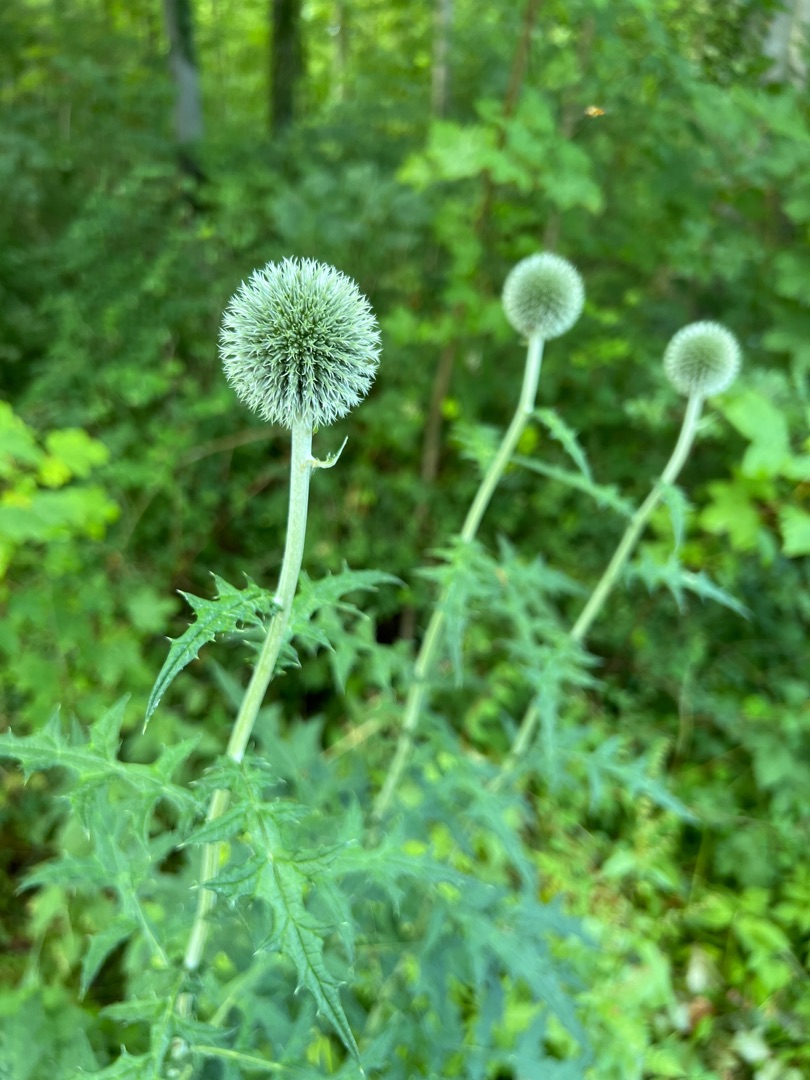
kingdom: Plantae
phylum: Tracheophyta
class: Magnoliopsida
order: Asterales
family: Asteraceae
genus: Echinops
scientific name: Echinops exaltatus
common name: Høj tidselkugle
